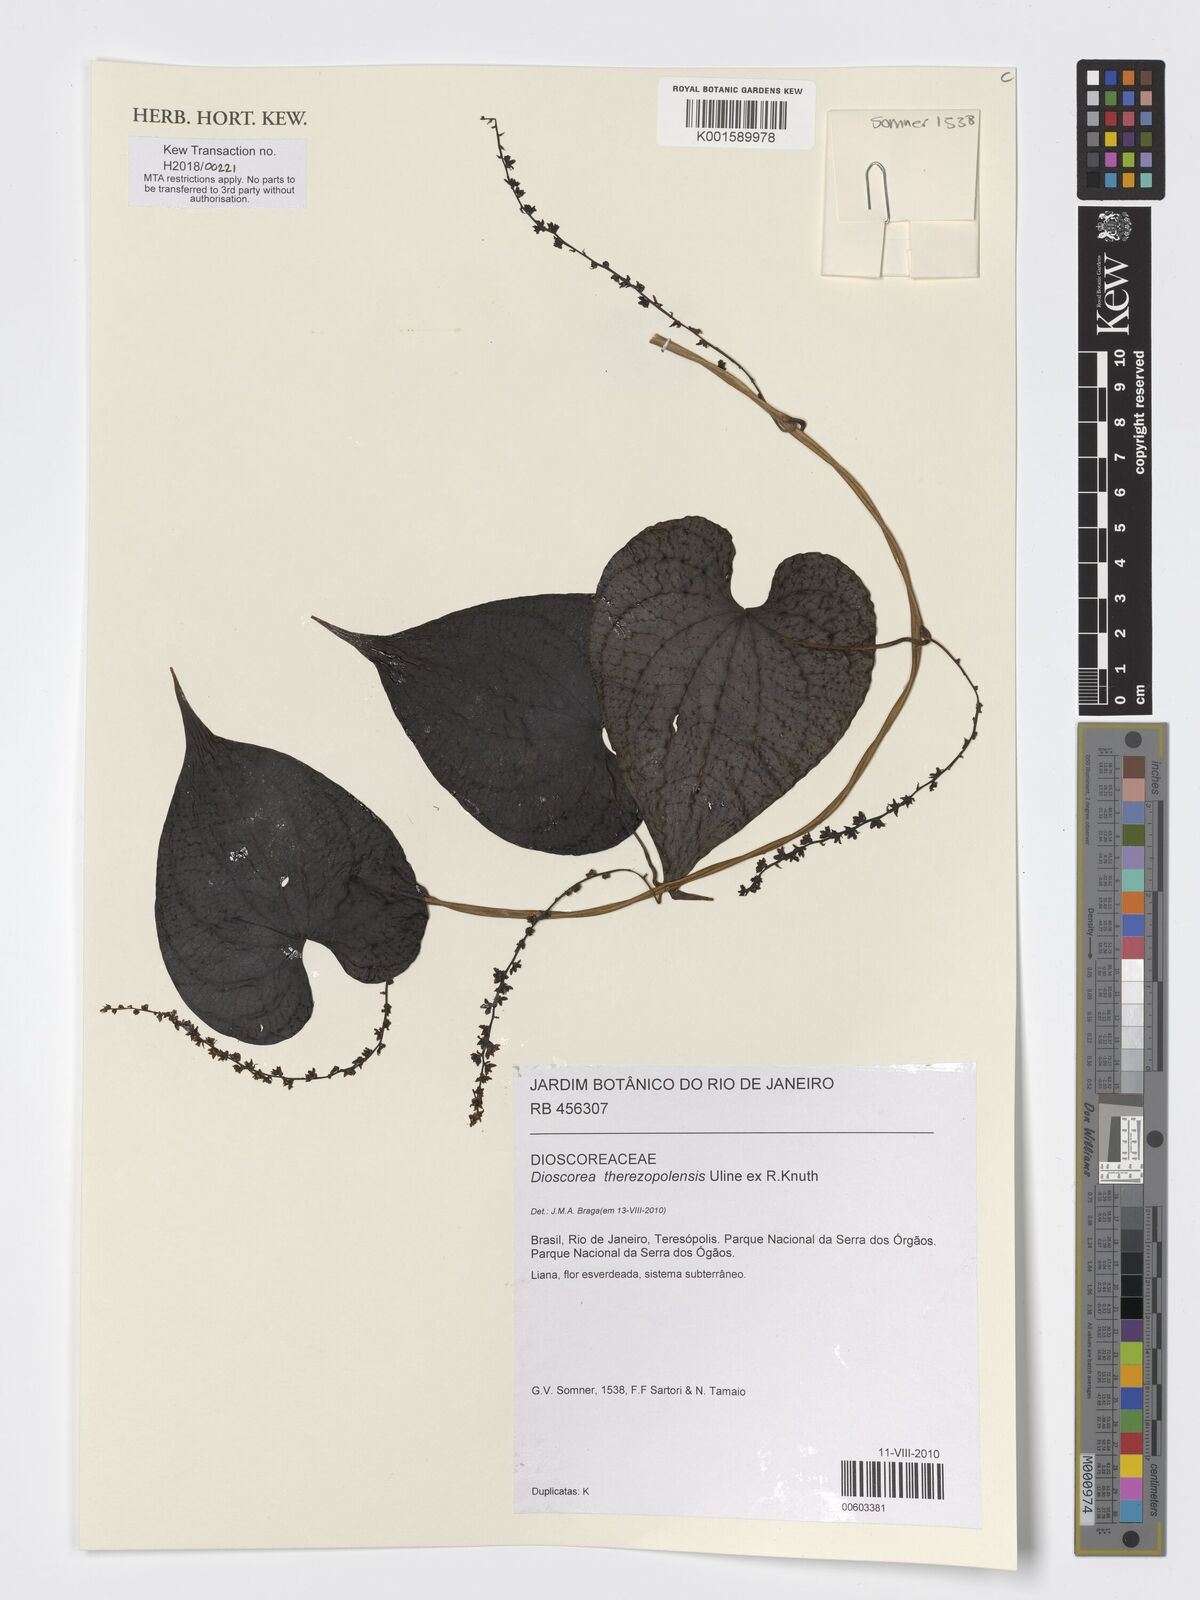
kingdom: Plantae
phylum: Tracheophyta
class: Liliopsida
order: Dioscoreales
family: Dioscoreaceae
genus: Dioscorea
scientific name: Dioscorea therezopolensis
